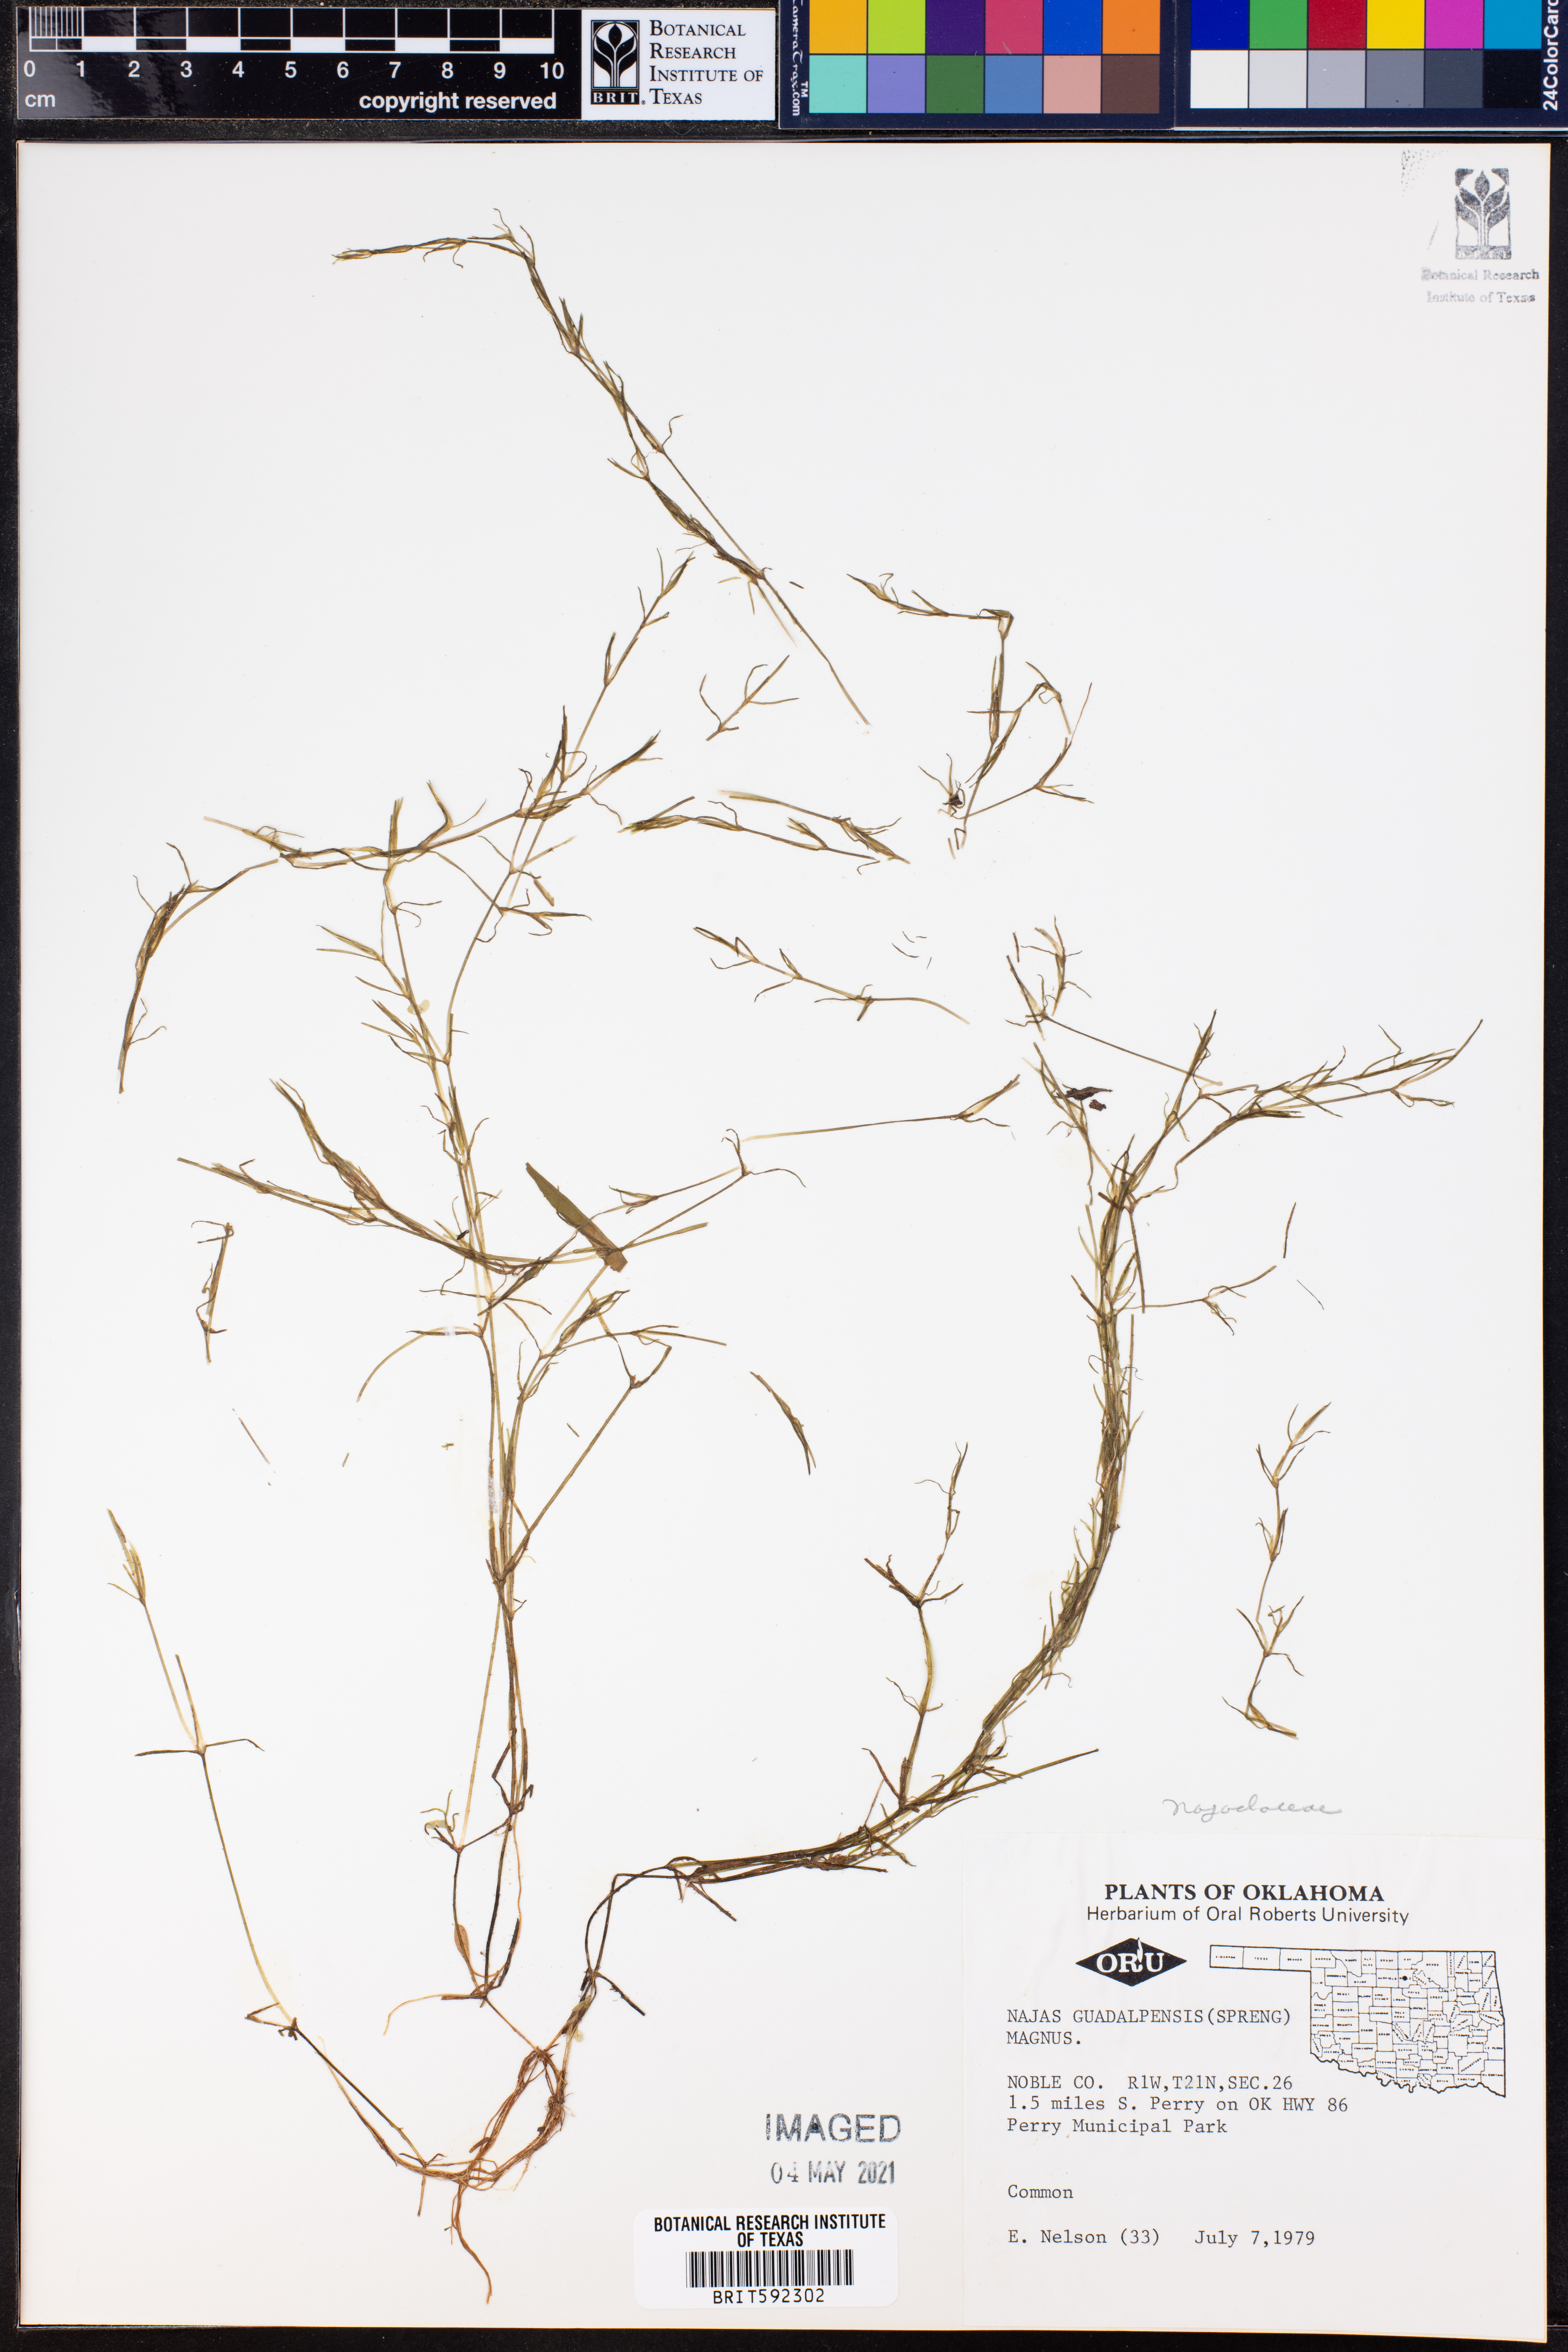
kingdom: Plantae
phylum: Tracheophyta
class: Liliopsida
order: Alismatales
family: Hydrocharitaceae
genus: Najas
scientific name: Najas guadalupensis
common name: Southern naiad
